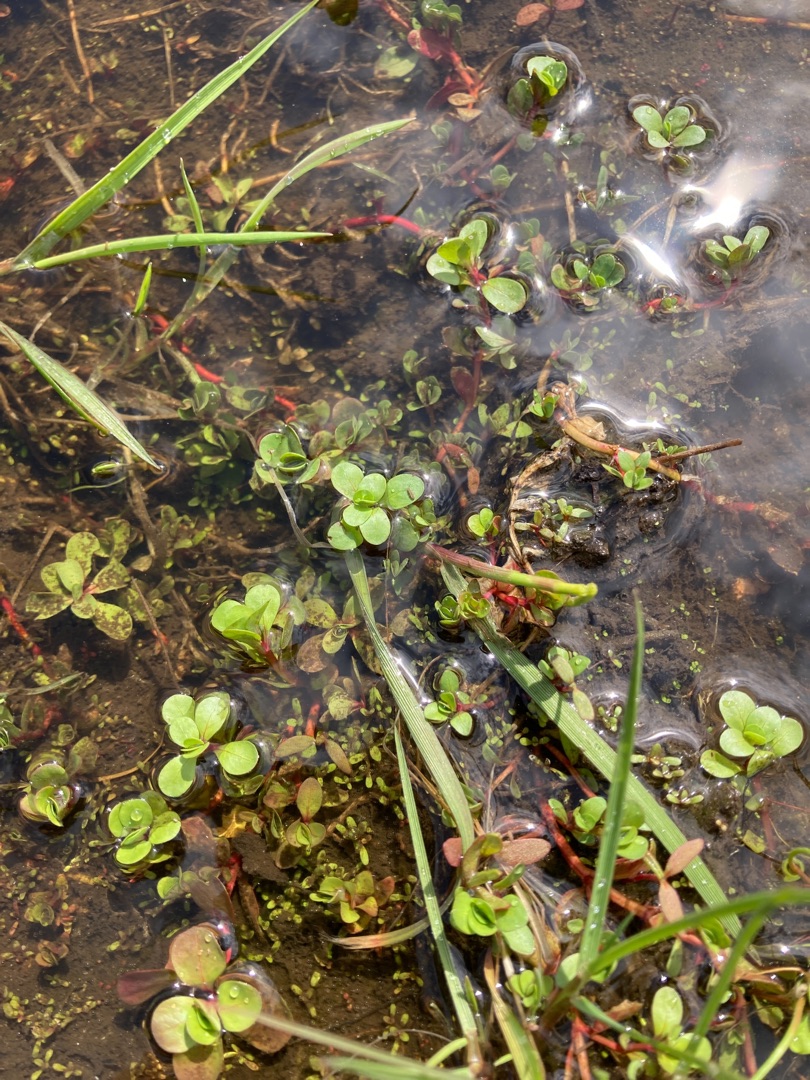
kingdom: Plantae
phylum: Tracheophyta
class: Magnoliopsida
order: Myrtales
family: Lythraceae
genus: Lythrum
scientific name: Lythrum portula
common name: Vandportulak
